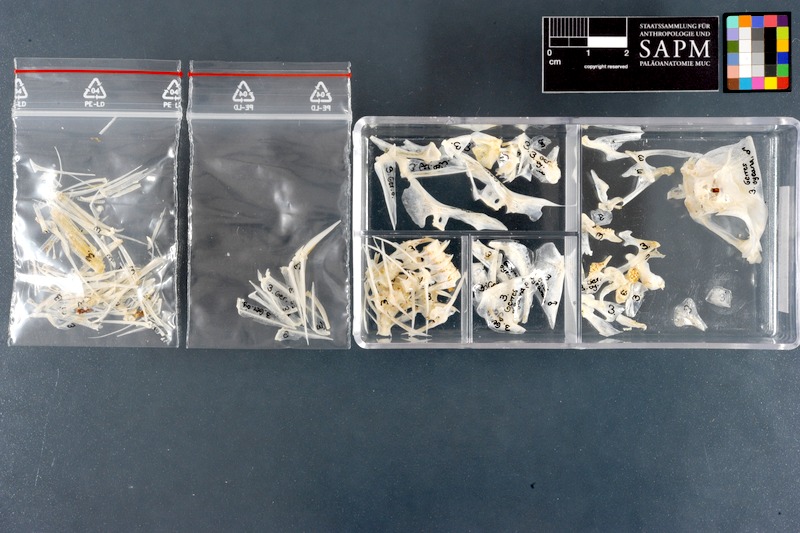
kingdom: Animalia
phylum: Chordata
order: Perciformes
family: Gerreidae
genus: Gerres
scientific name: Gerres oyena
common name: Common silver-biddy
